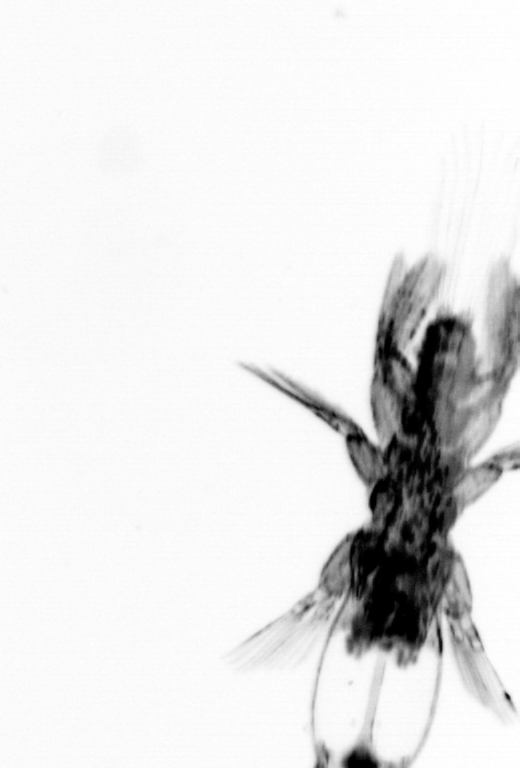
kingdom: Animalia
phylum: Chordata
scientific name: Chordata
